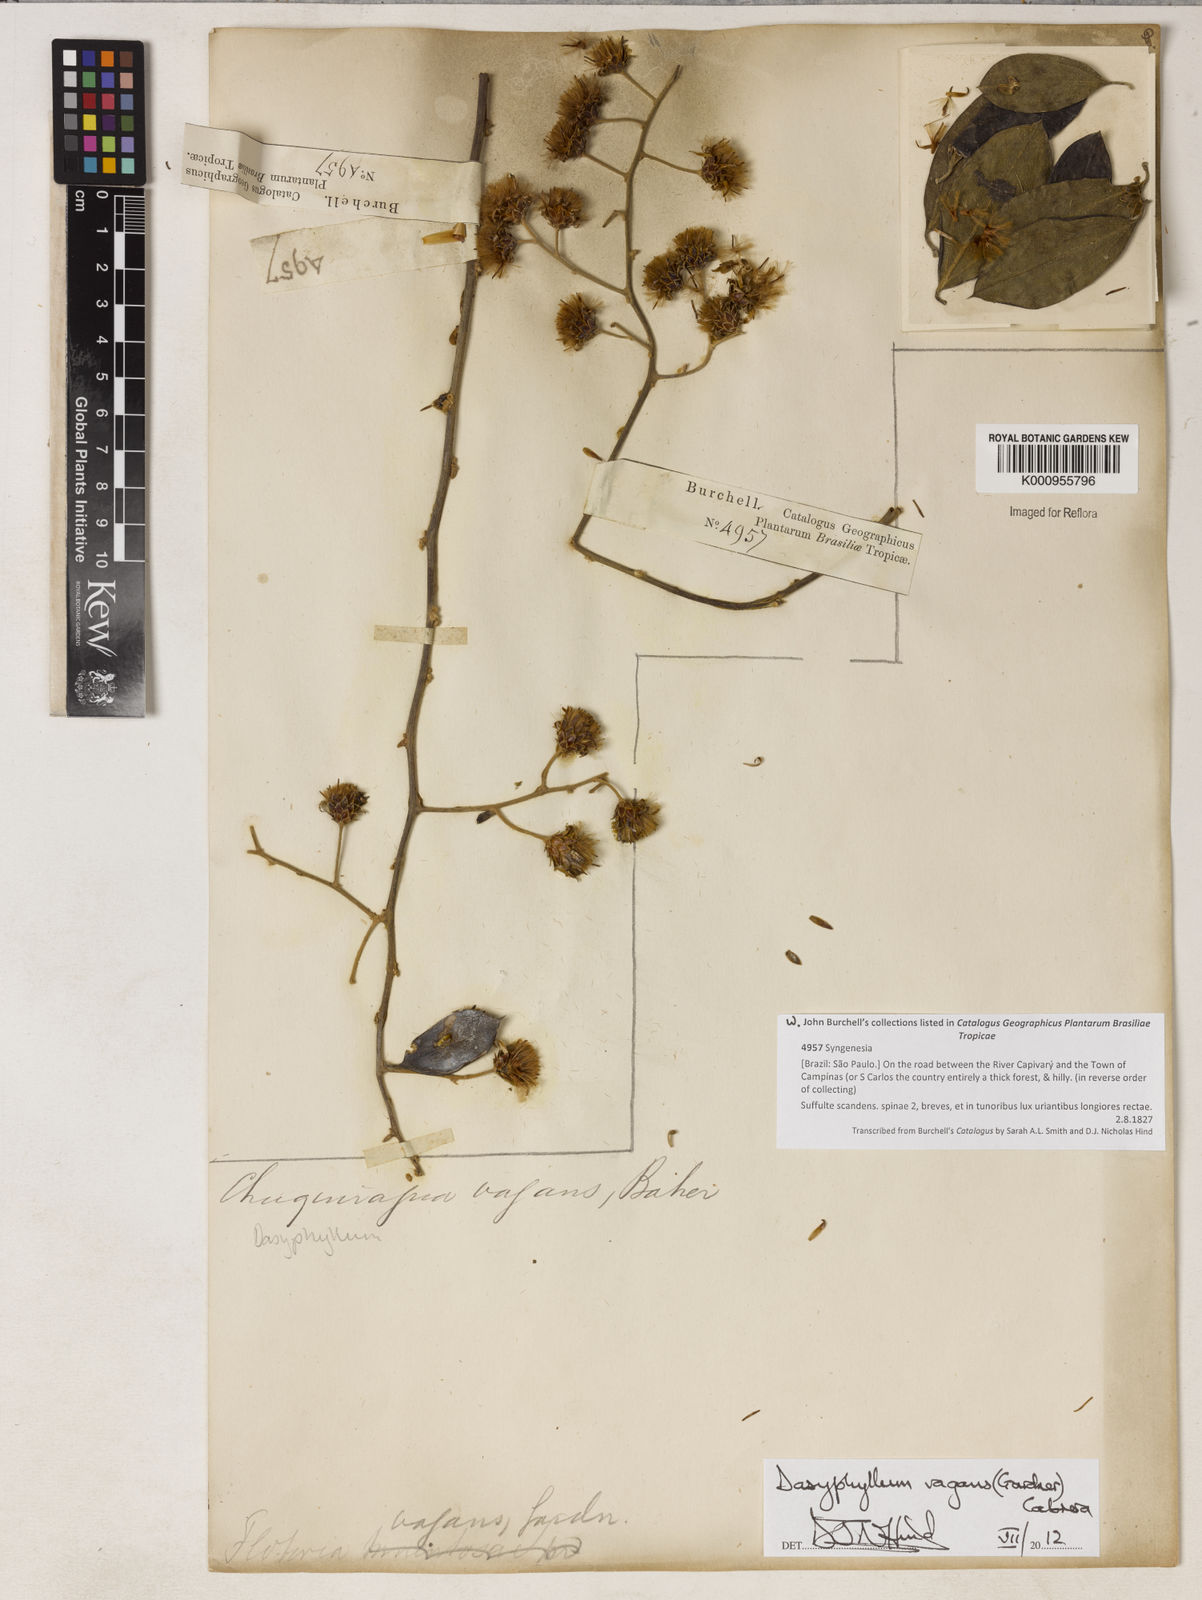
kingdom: Plantae
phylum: Tracheophyta
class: Magnoliopsida
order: Asterales
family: Asteraceae
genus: Dasyphyllum
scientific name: Dasyphyllum vagans
